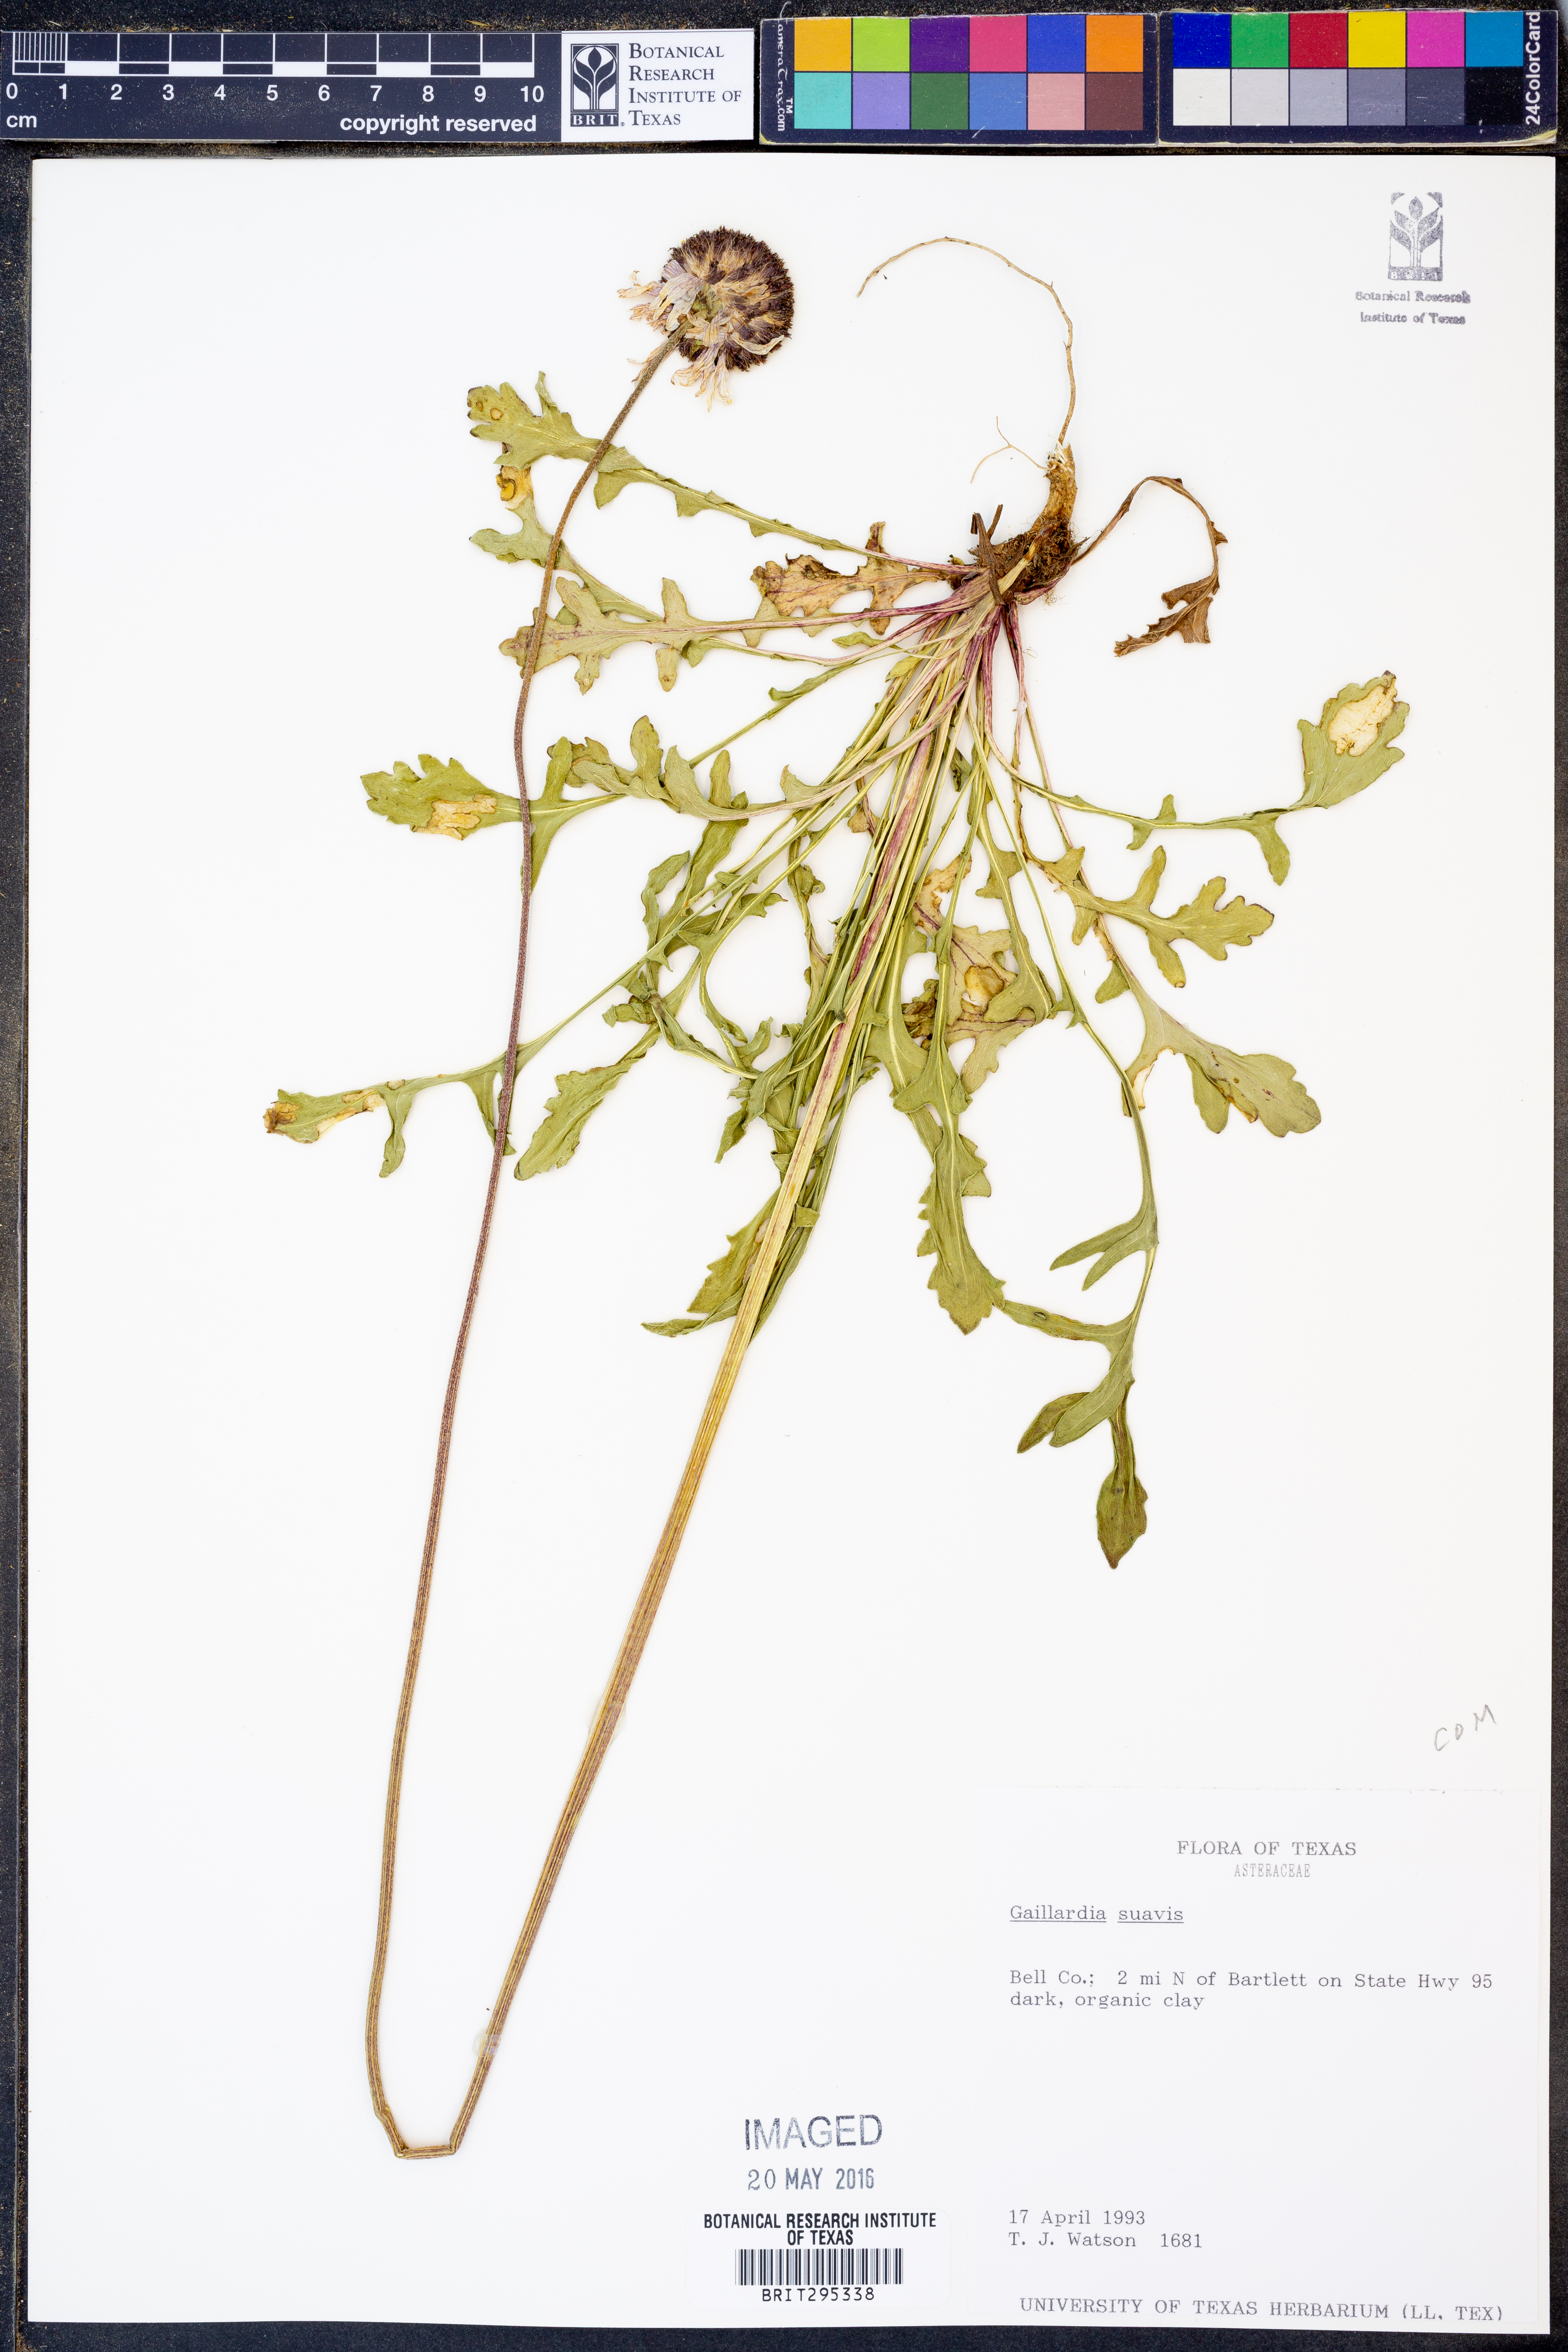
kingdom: Plantae
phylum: Tracheophyta
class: Magnoliopsida
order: Asterales
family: Asteraceae
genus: Gaillardia
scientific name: Gaillardia suavis
